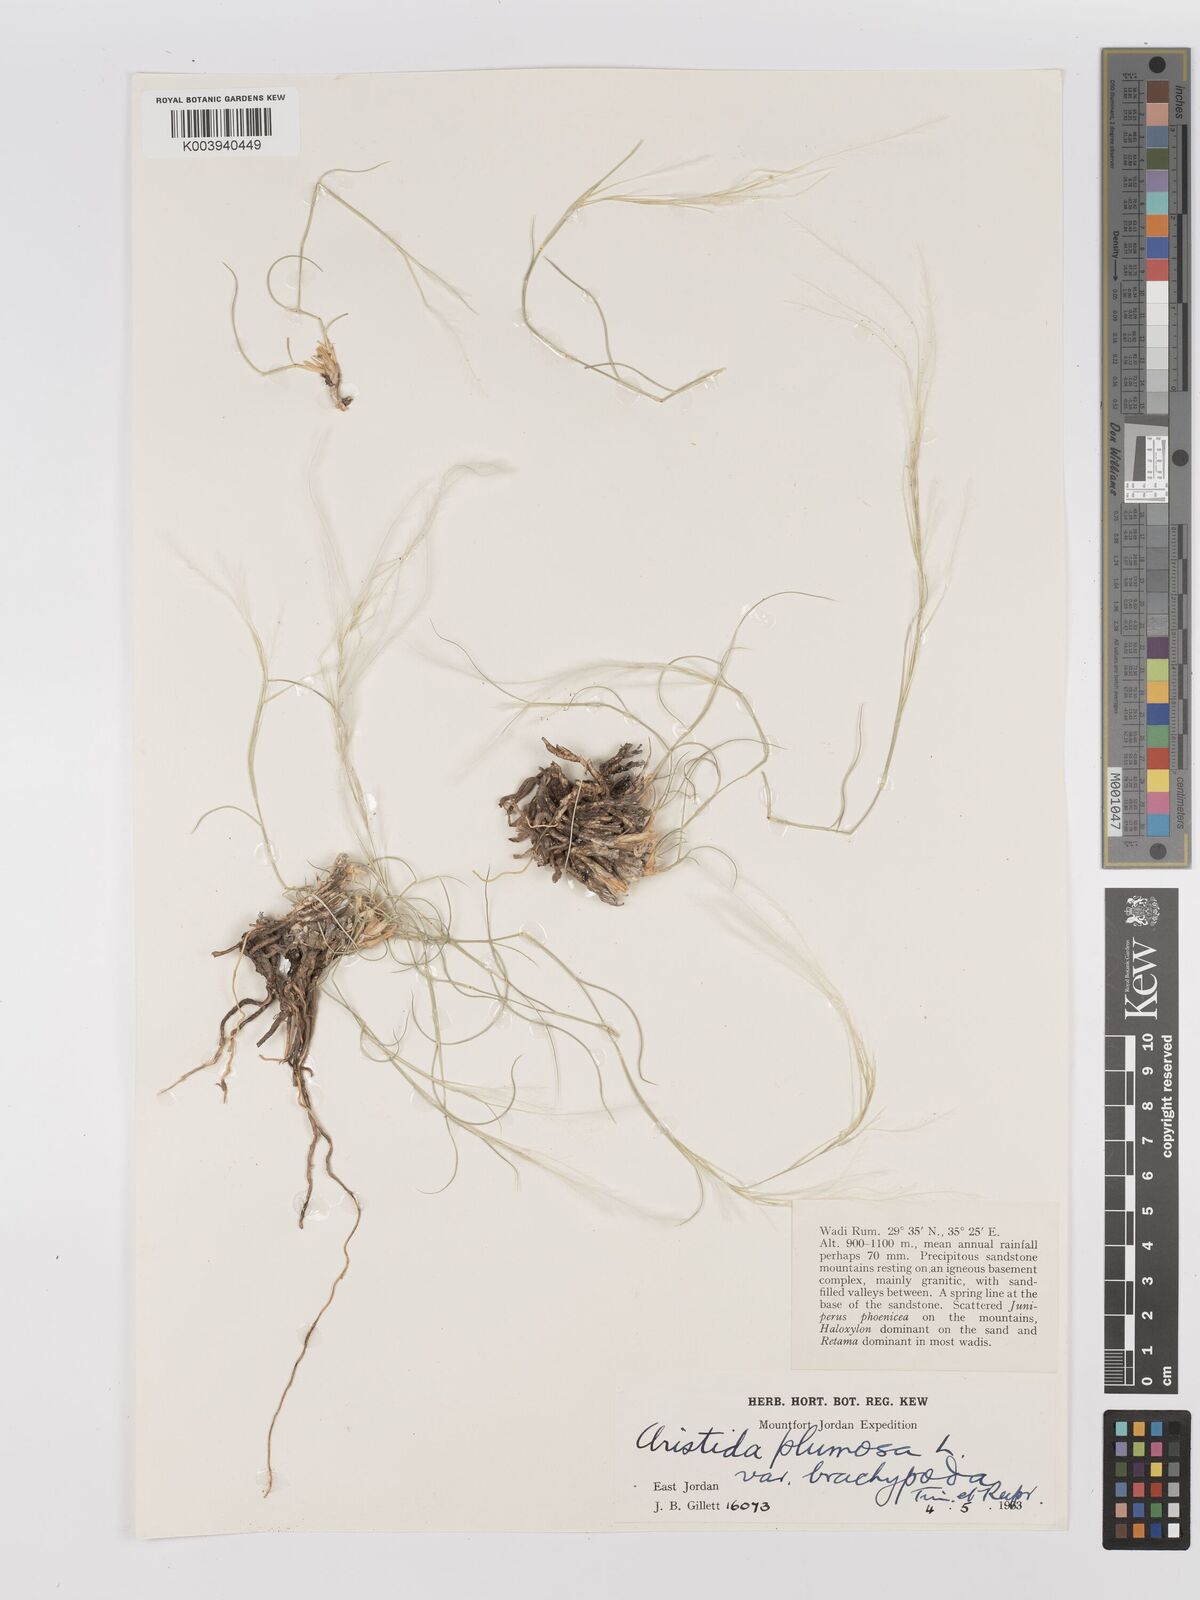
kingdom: Plantae
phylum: Tracheophyta
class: Liliopsida
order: Poales
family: Poaceae
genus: Stipagrostis
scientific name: Stipagrostis plumosa
